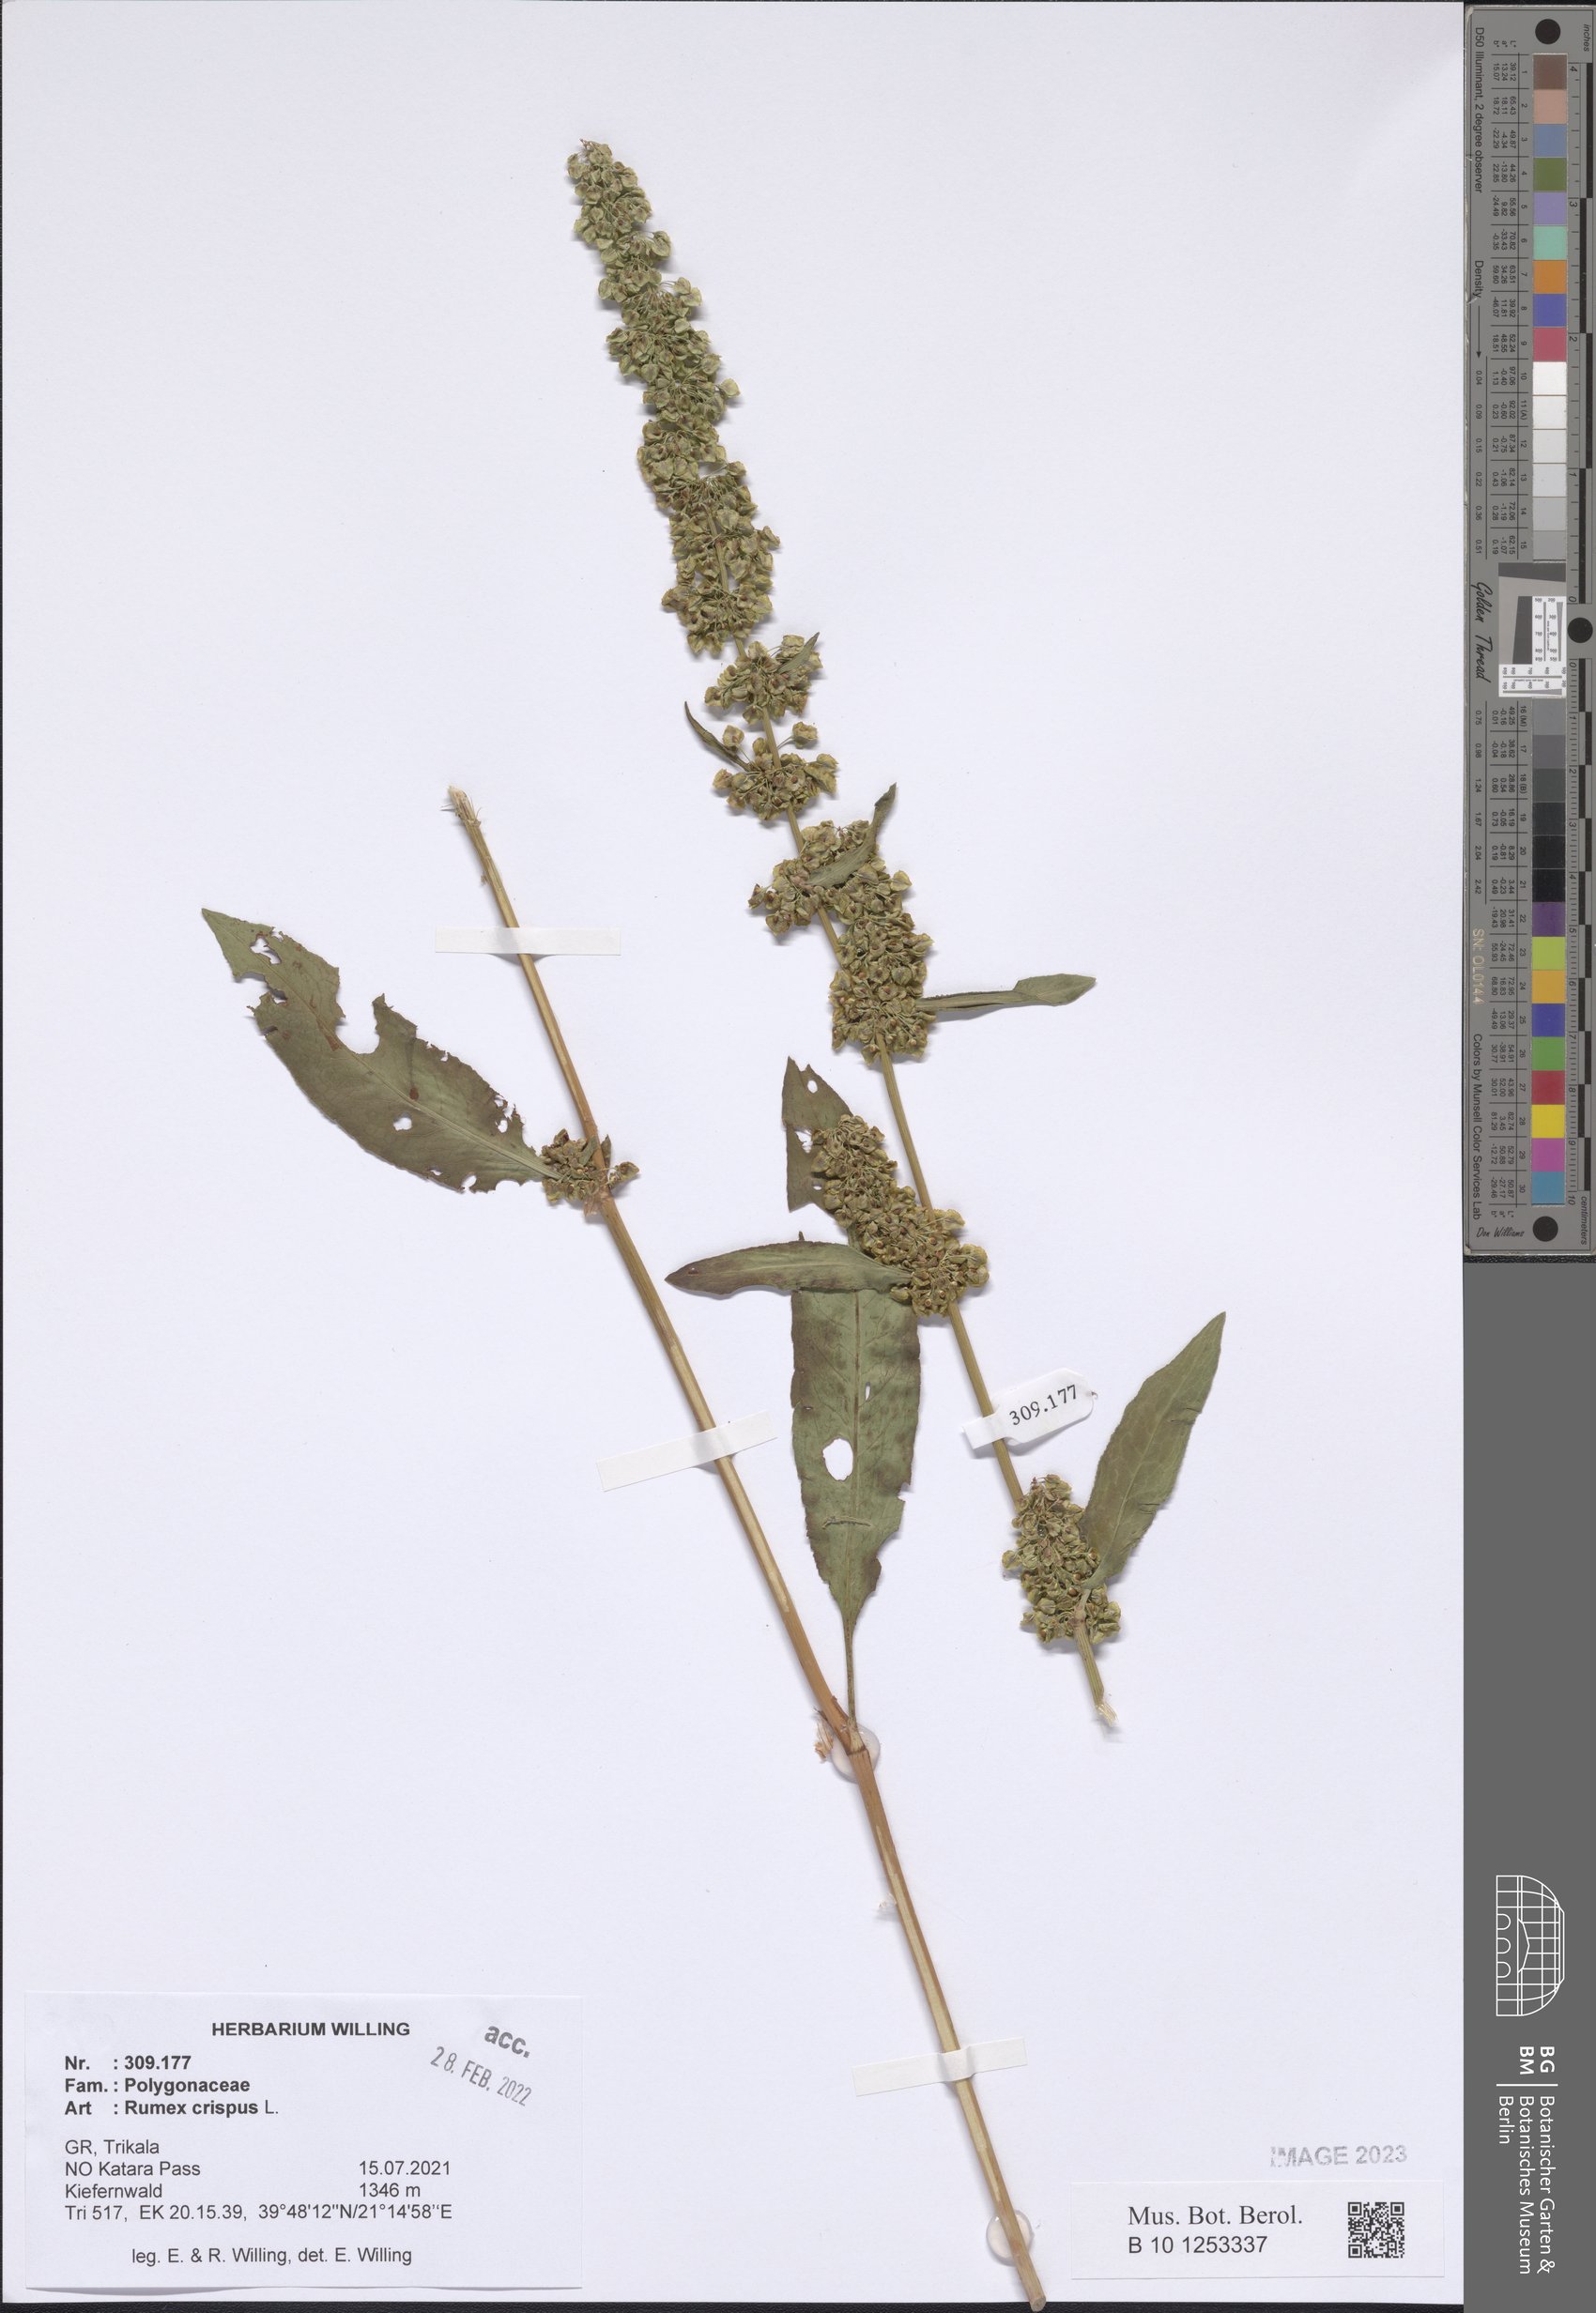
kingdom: Plantae
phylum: Tracheophyta
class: Magnoliopsida
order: Caryophyllales
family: Polygonaceae
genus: Rumex
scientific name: Rumex crispus
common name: Curled dock
